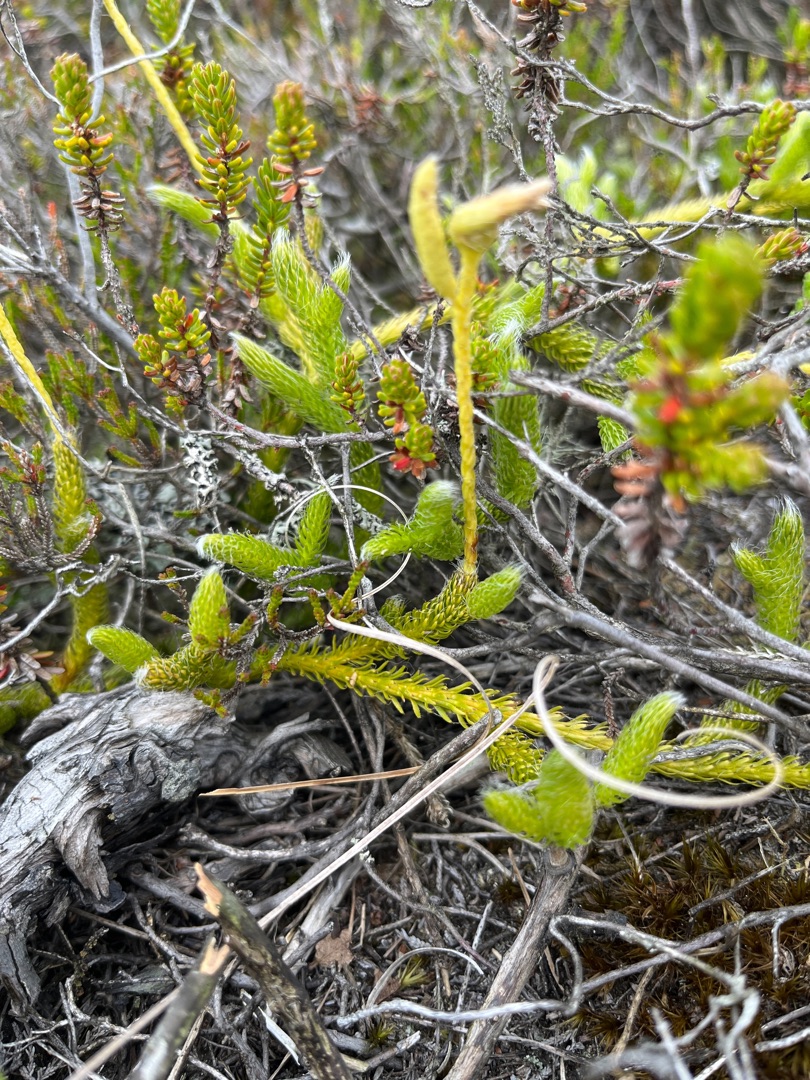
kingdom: Plantae
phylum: Tracheophyta
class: Lycopodiopsida
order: Lycopodiales
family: Lycopodiaceae
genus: Lycopodium
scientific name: Lycopodium clavatum
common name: Almindelig ulvefod
